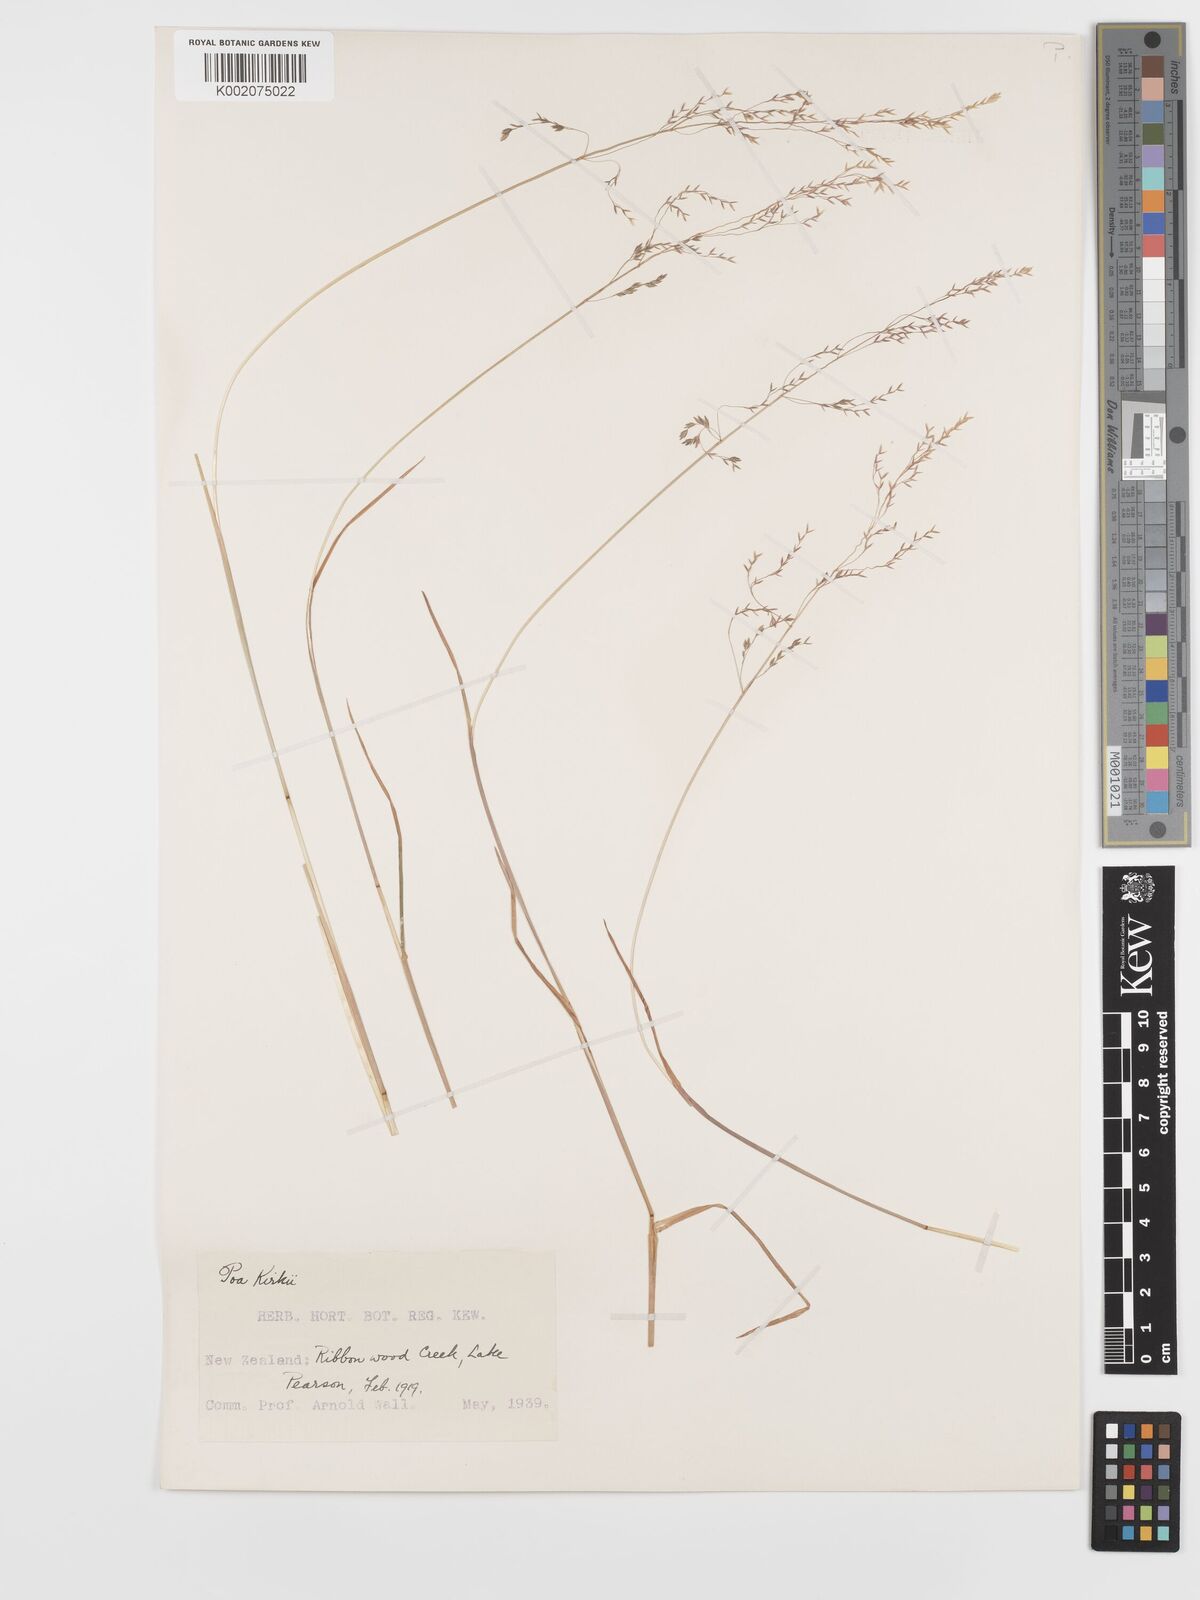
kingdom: Plantae
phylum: Tracheophyta
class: Liliopsida
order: Poales
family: Poaceae
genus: Poa
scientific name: Poa kirkii
